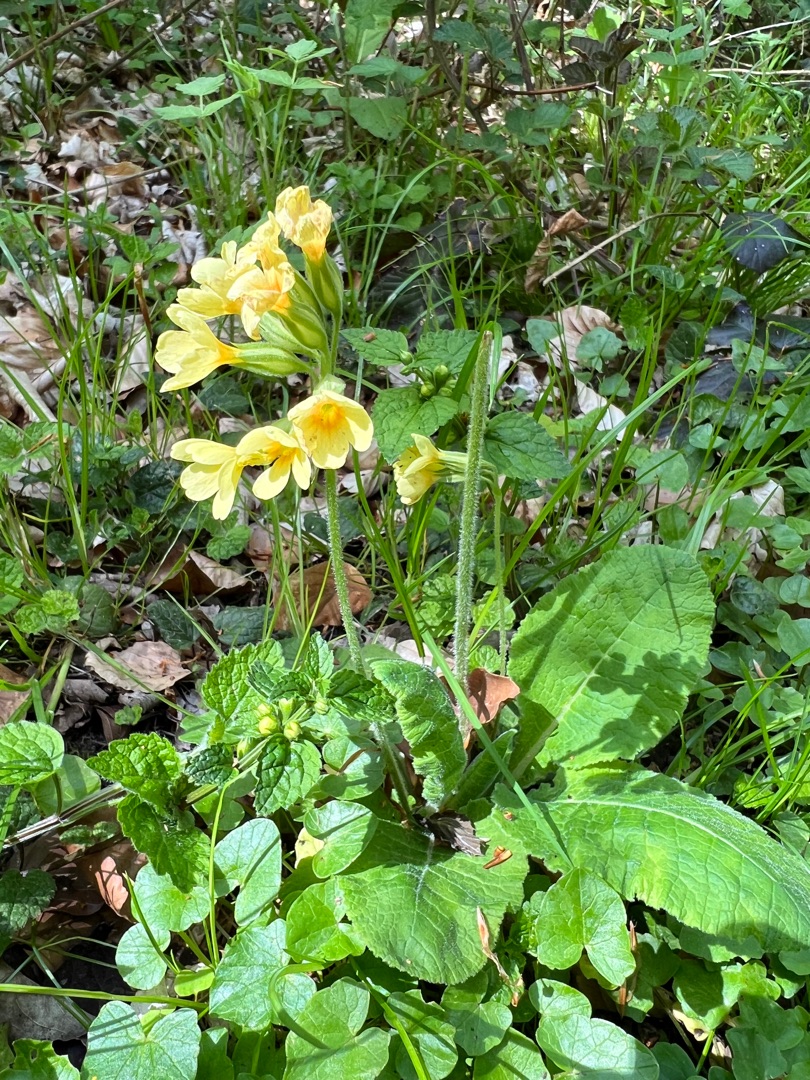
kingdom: Plantae
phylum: Tracheophyta
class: Magnoliopsida
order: Ericales
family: Primulaceae
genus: Primula
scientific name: Primula elatior
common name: Fladkravet kodriver
